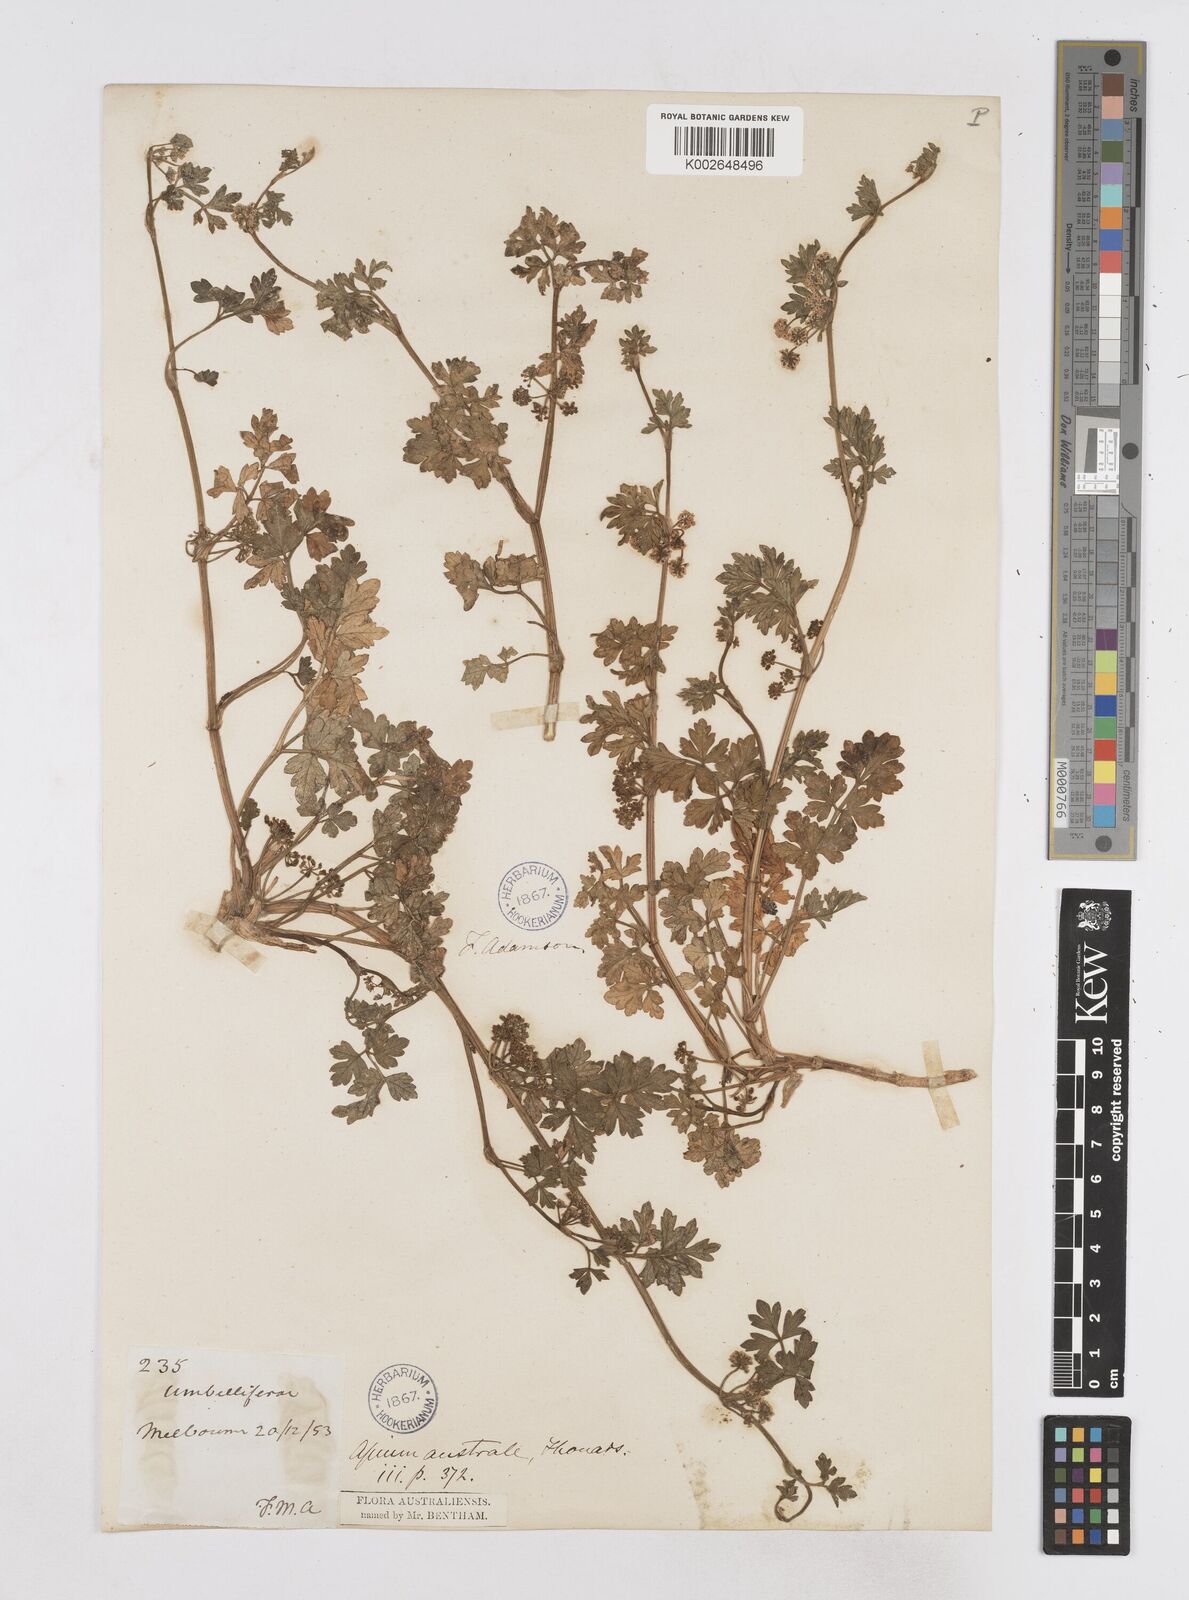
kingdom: Plantae
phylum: Tracheophyta
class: Magnoliopsida
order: Apiales
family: Apiaceae
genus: Apium
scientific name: Apium prostratum
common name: Prostrate marshwort
